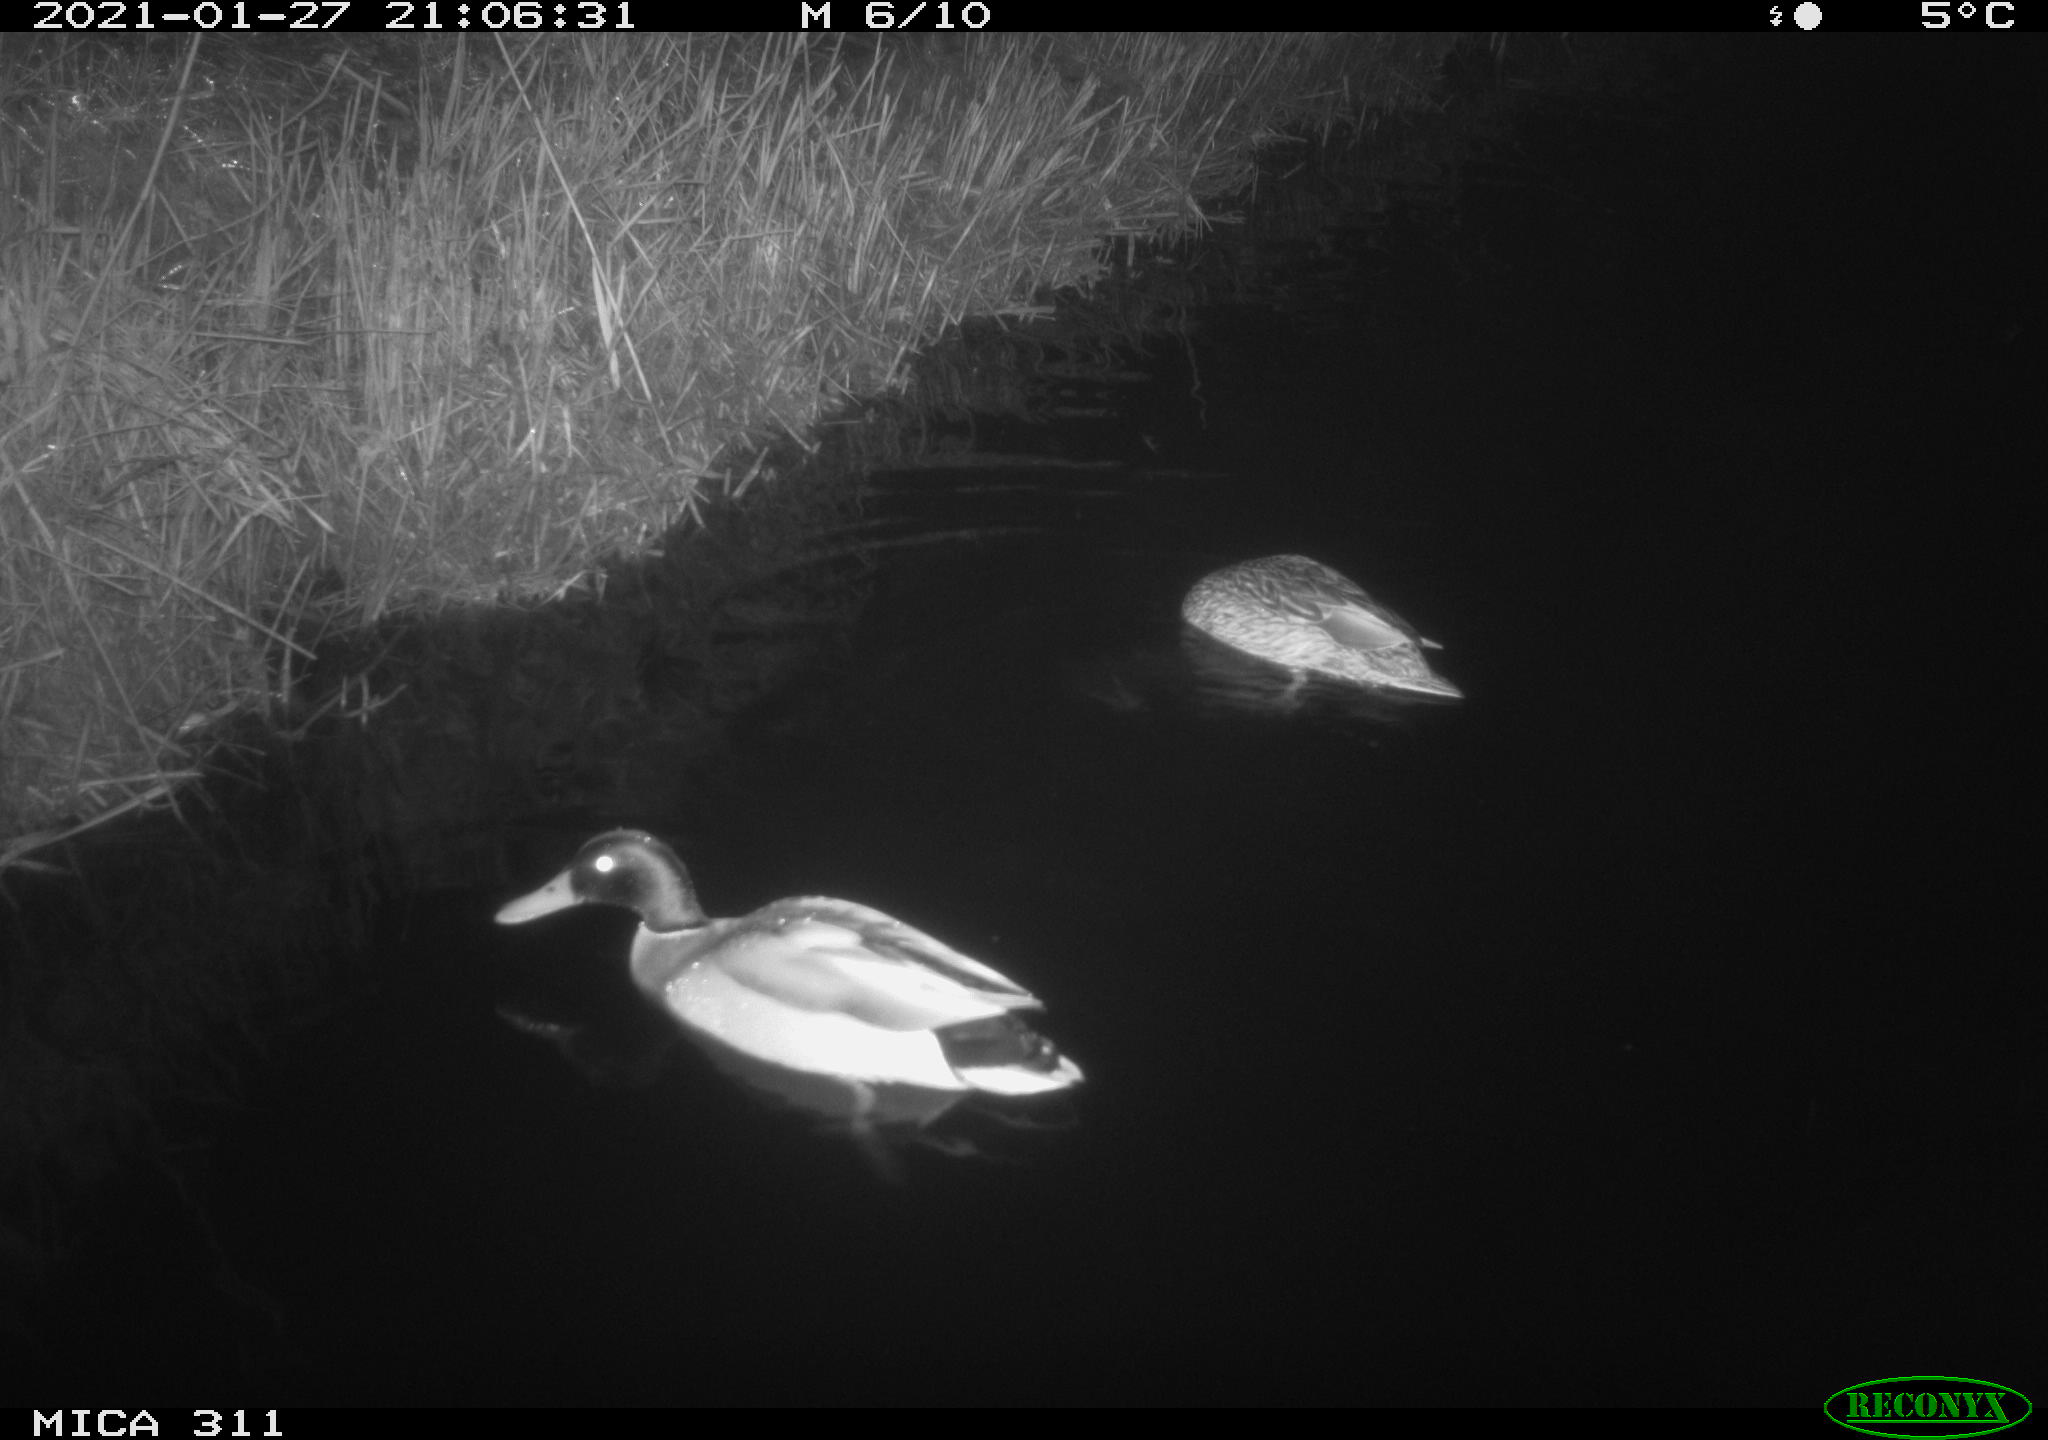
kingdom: Animalia
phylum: Chordata
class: Aves
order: Anseriformes
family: Anatidae
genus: Anas
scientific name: Anas
